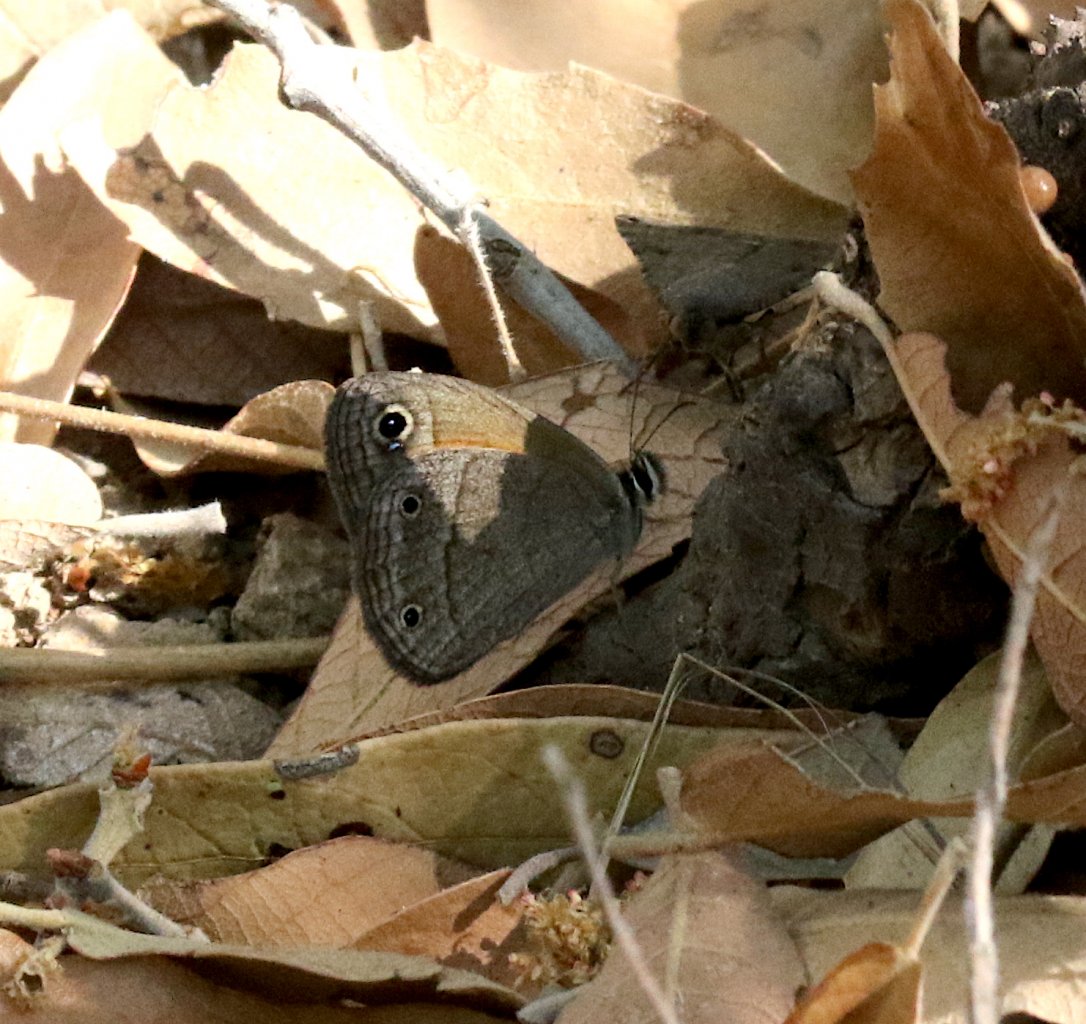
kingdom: Animalia
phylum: Arthropoda
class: Insecta
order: Lepidoptera
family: Nymphalidae
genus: Euptychia
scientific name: Euptychia rubricata
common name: Red Satyr
